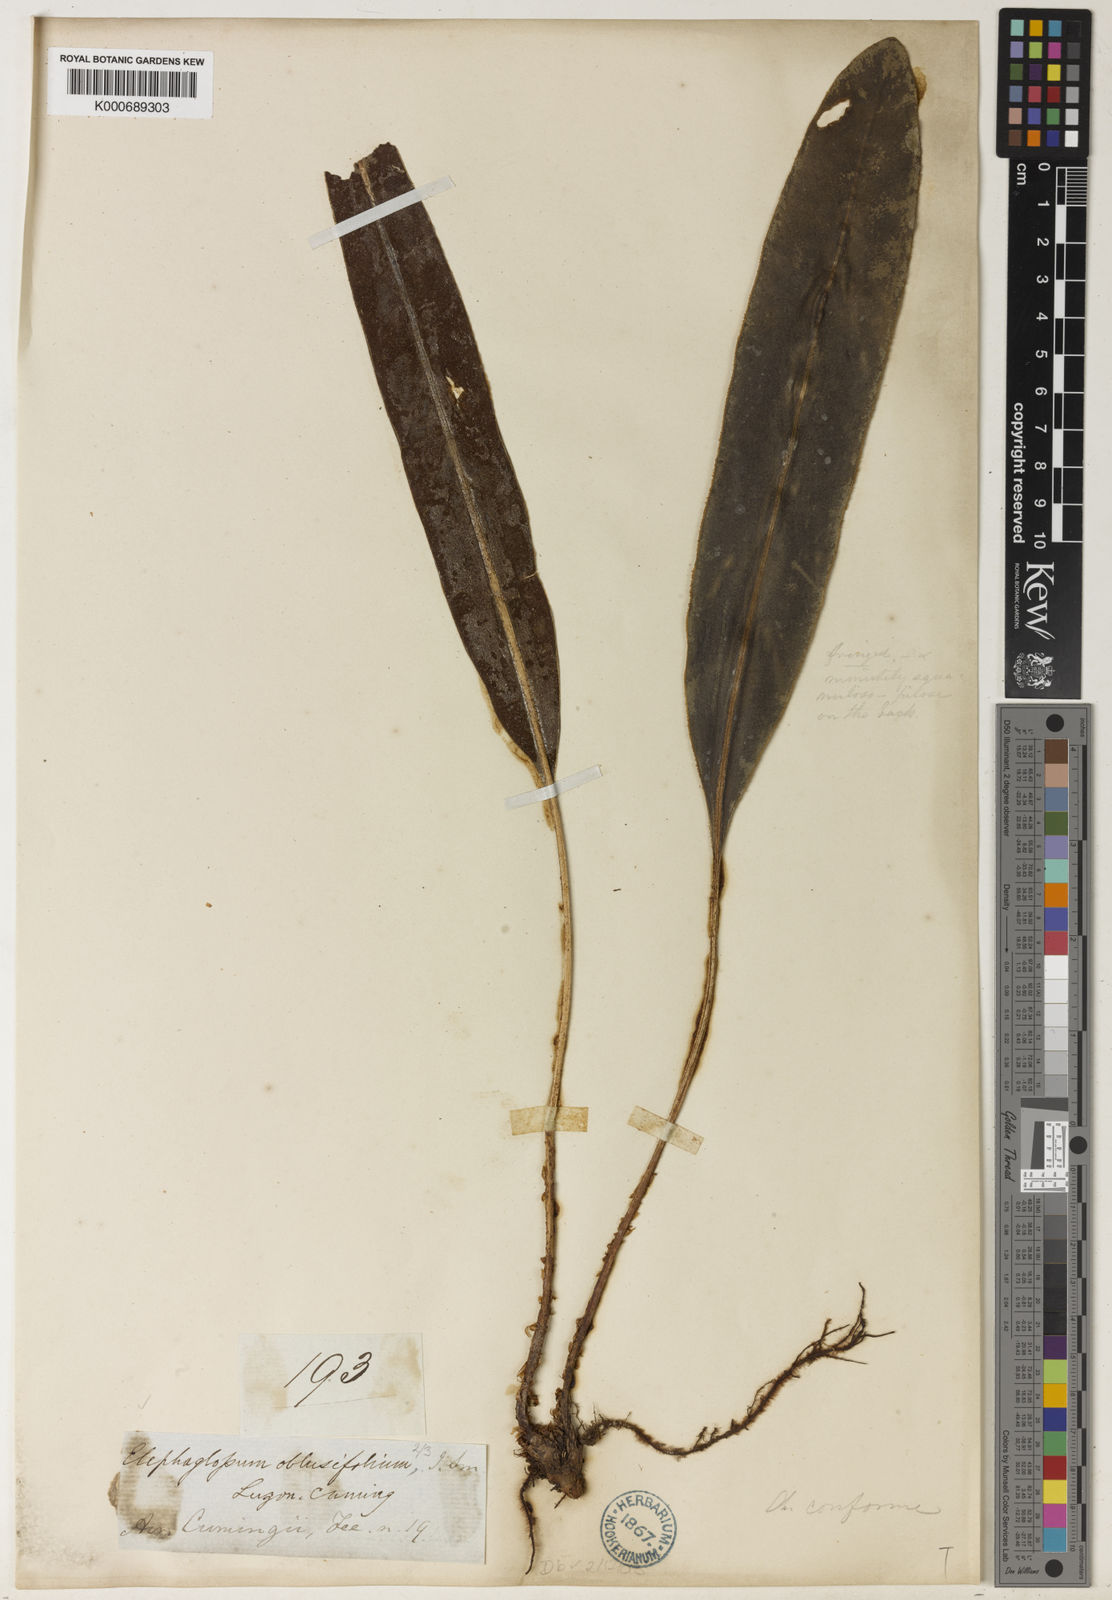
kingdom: Plantae
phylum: Tracheophyta
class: Polypodiopsida
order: Polypodiales
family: Dryopteridaceae
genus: Elaphoglossum
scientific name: Elaphoglossum luzonicum
